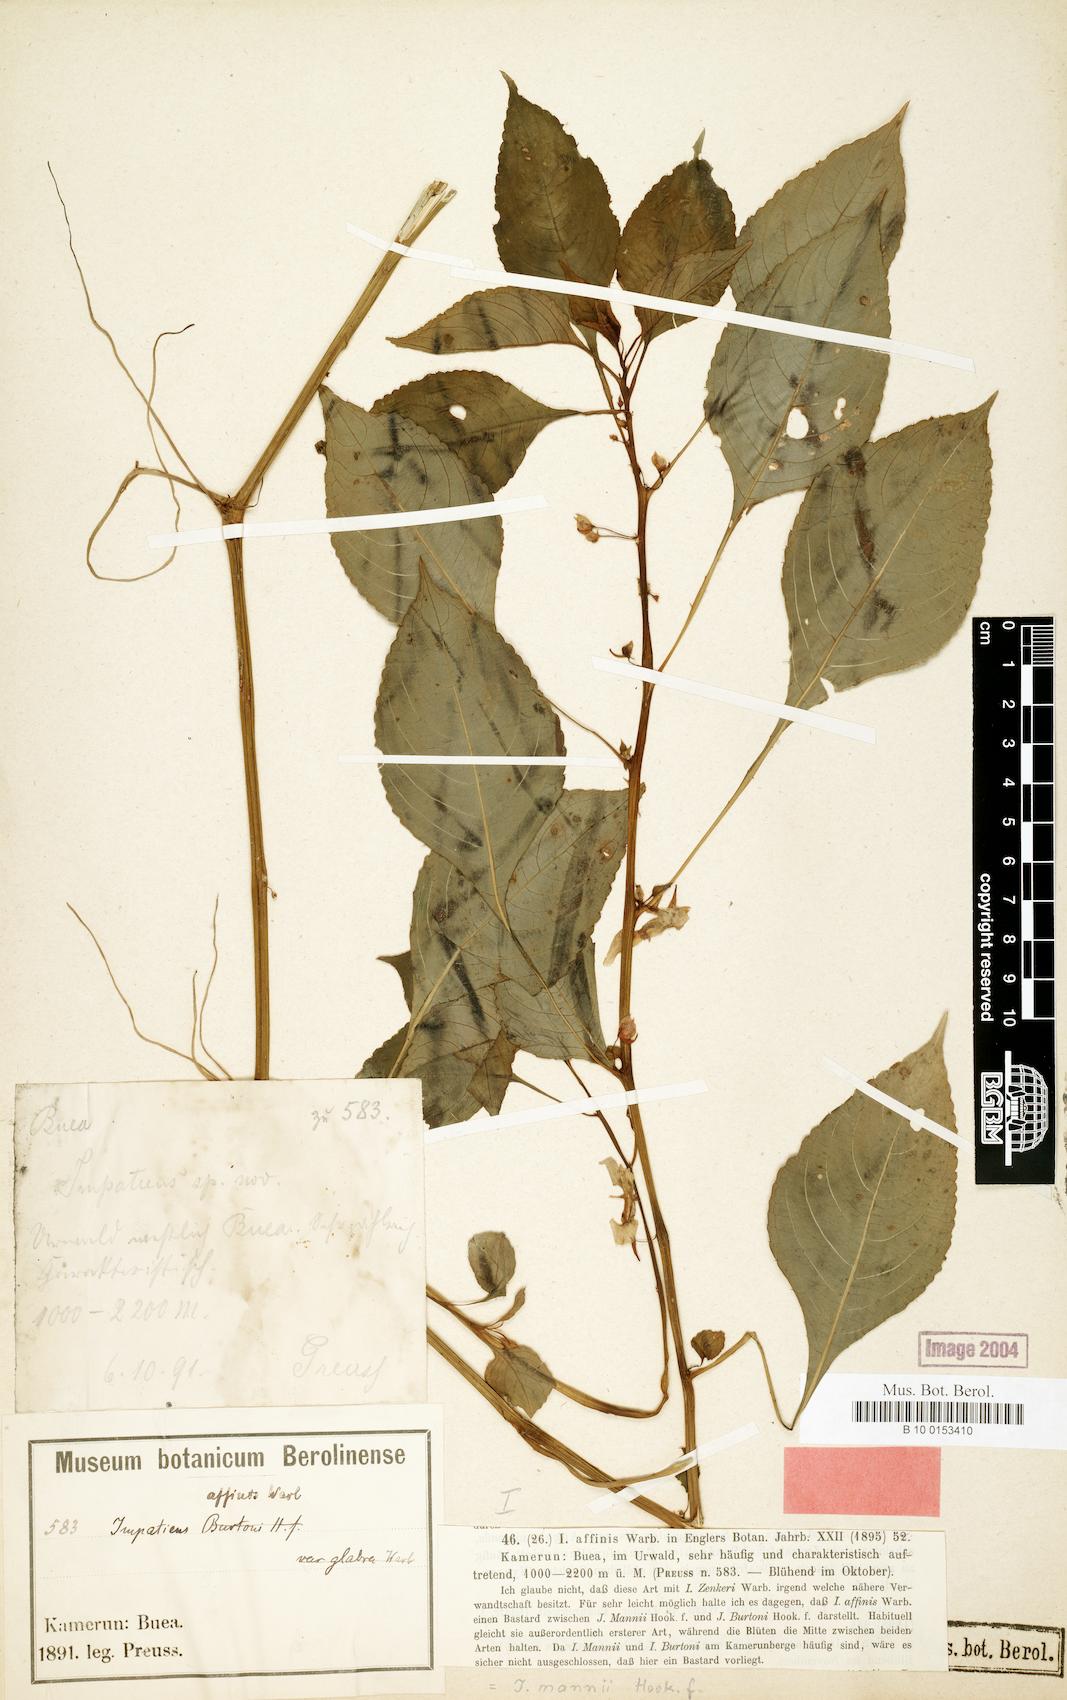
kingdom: Plantae
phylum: Tracheophyta
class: Magnoliopsida
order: Ericales
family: Balsaminaceae
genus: Impatiens
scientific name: Impatiens mannii
